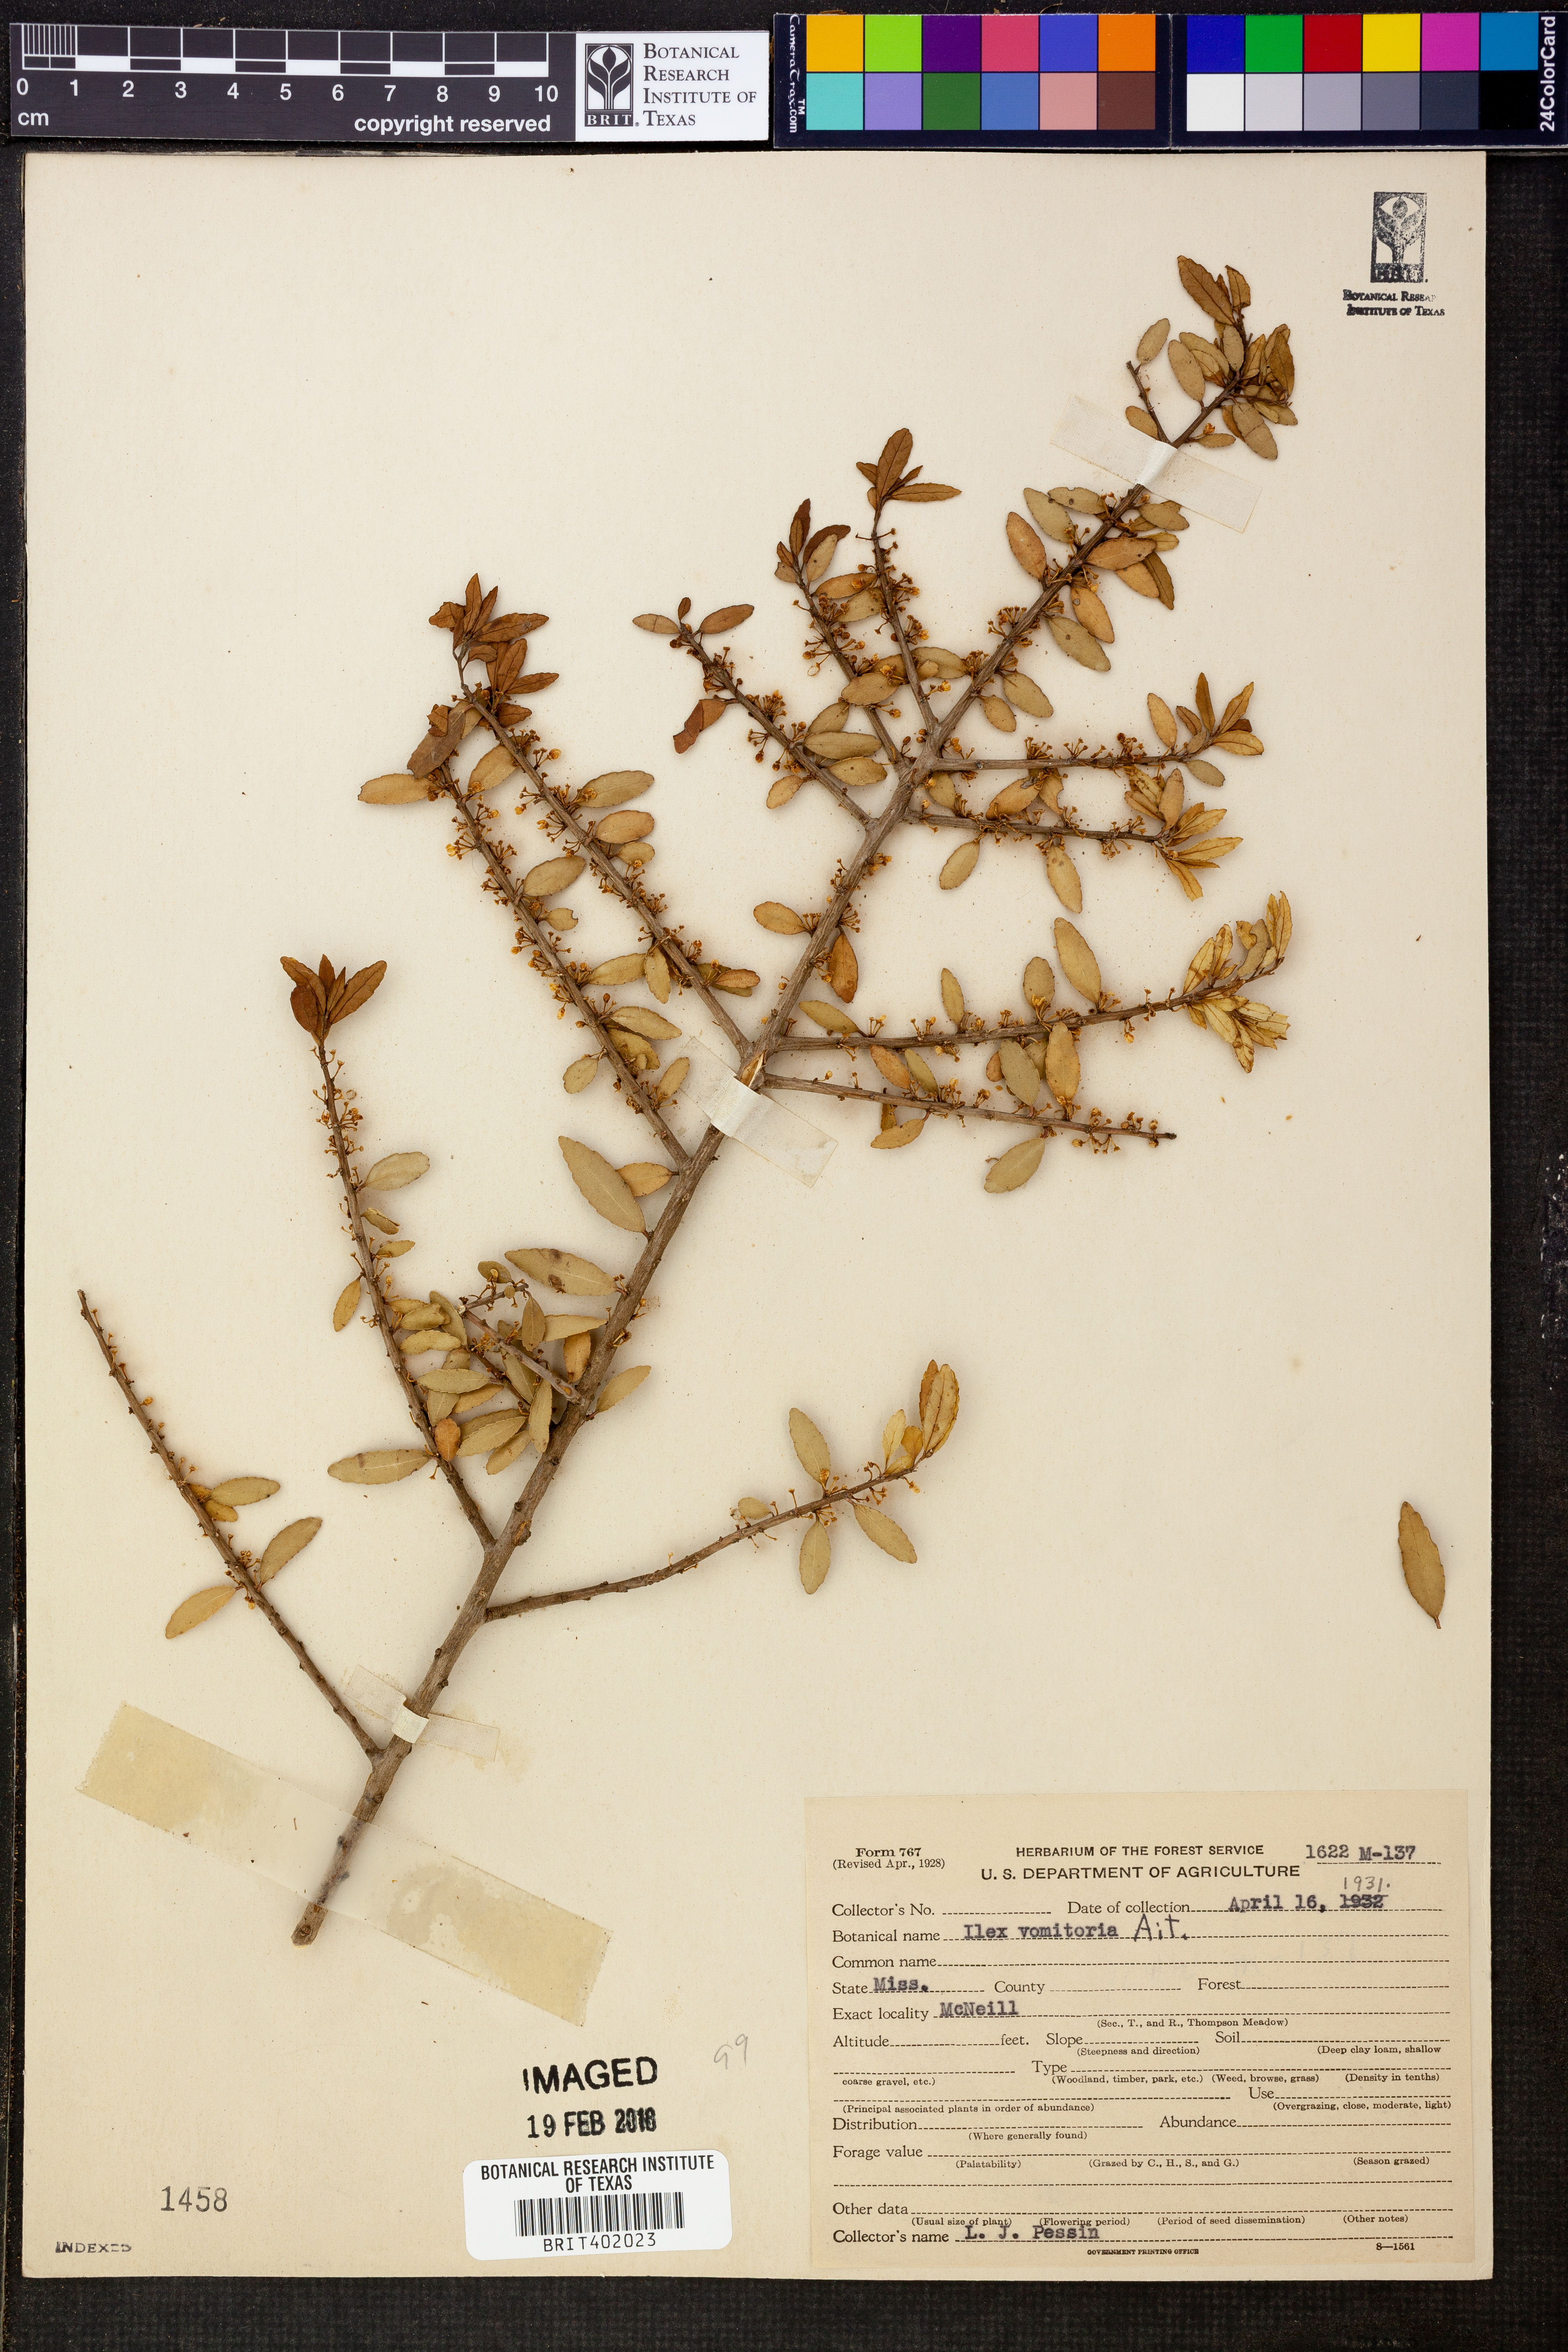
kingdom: Plantae
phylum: Tracheophyta
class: Magnoliopsida
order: Aquifoliales
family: Aquifoliaceae
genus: Ilex
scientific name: Ilex vomitoria
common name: Yaupon holly
